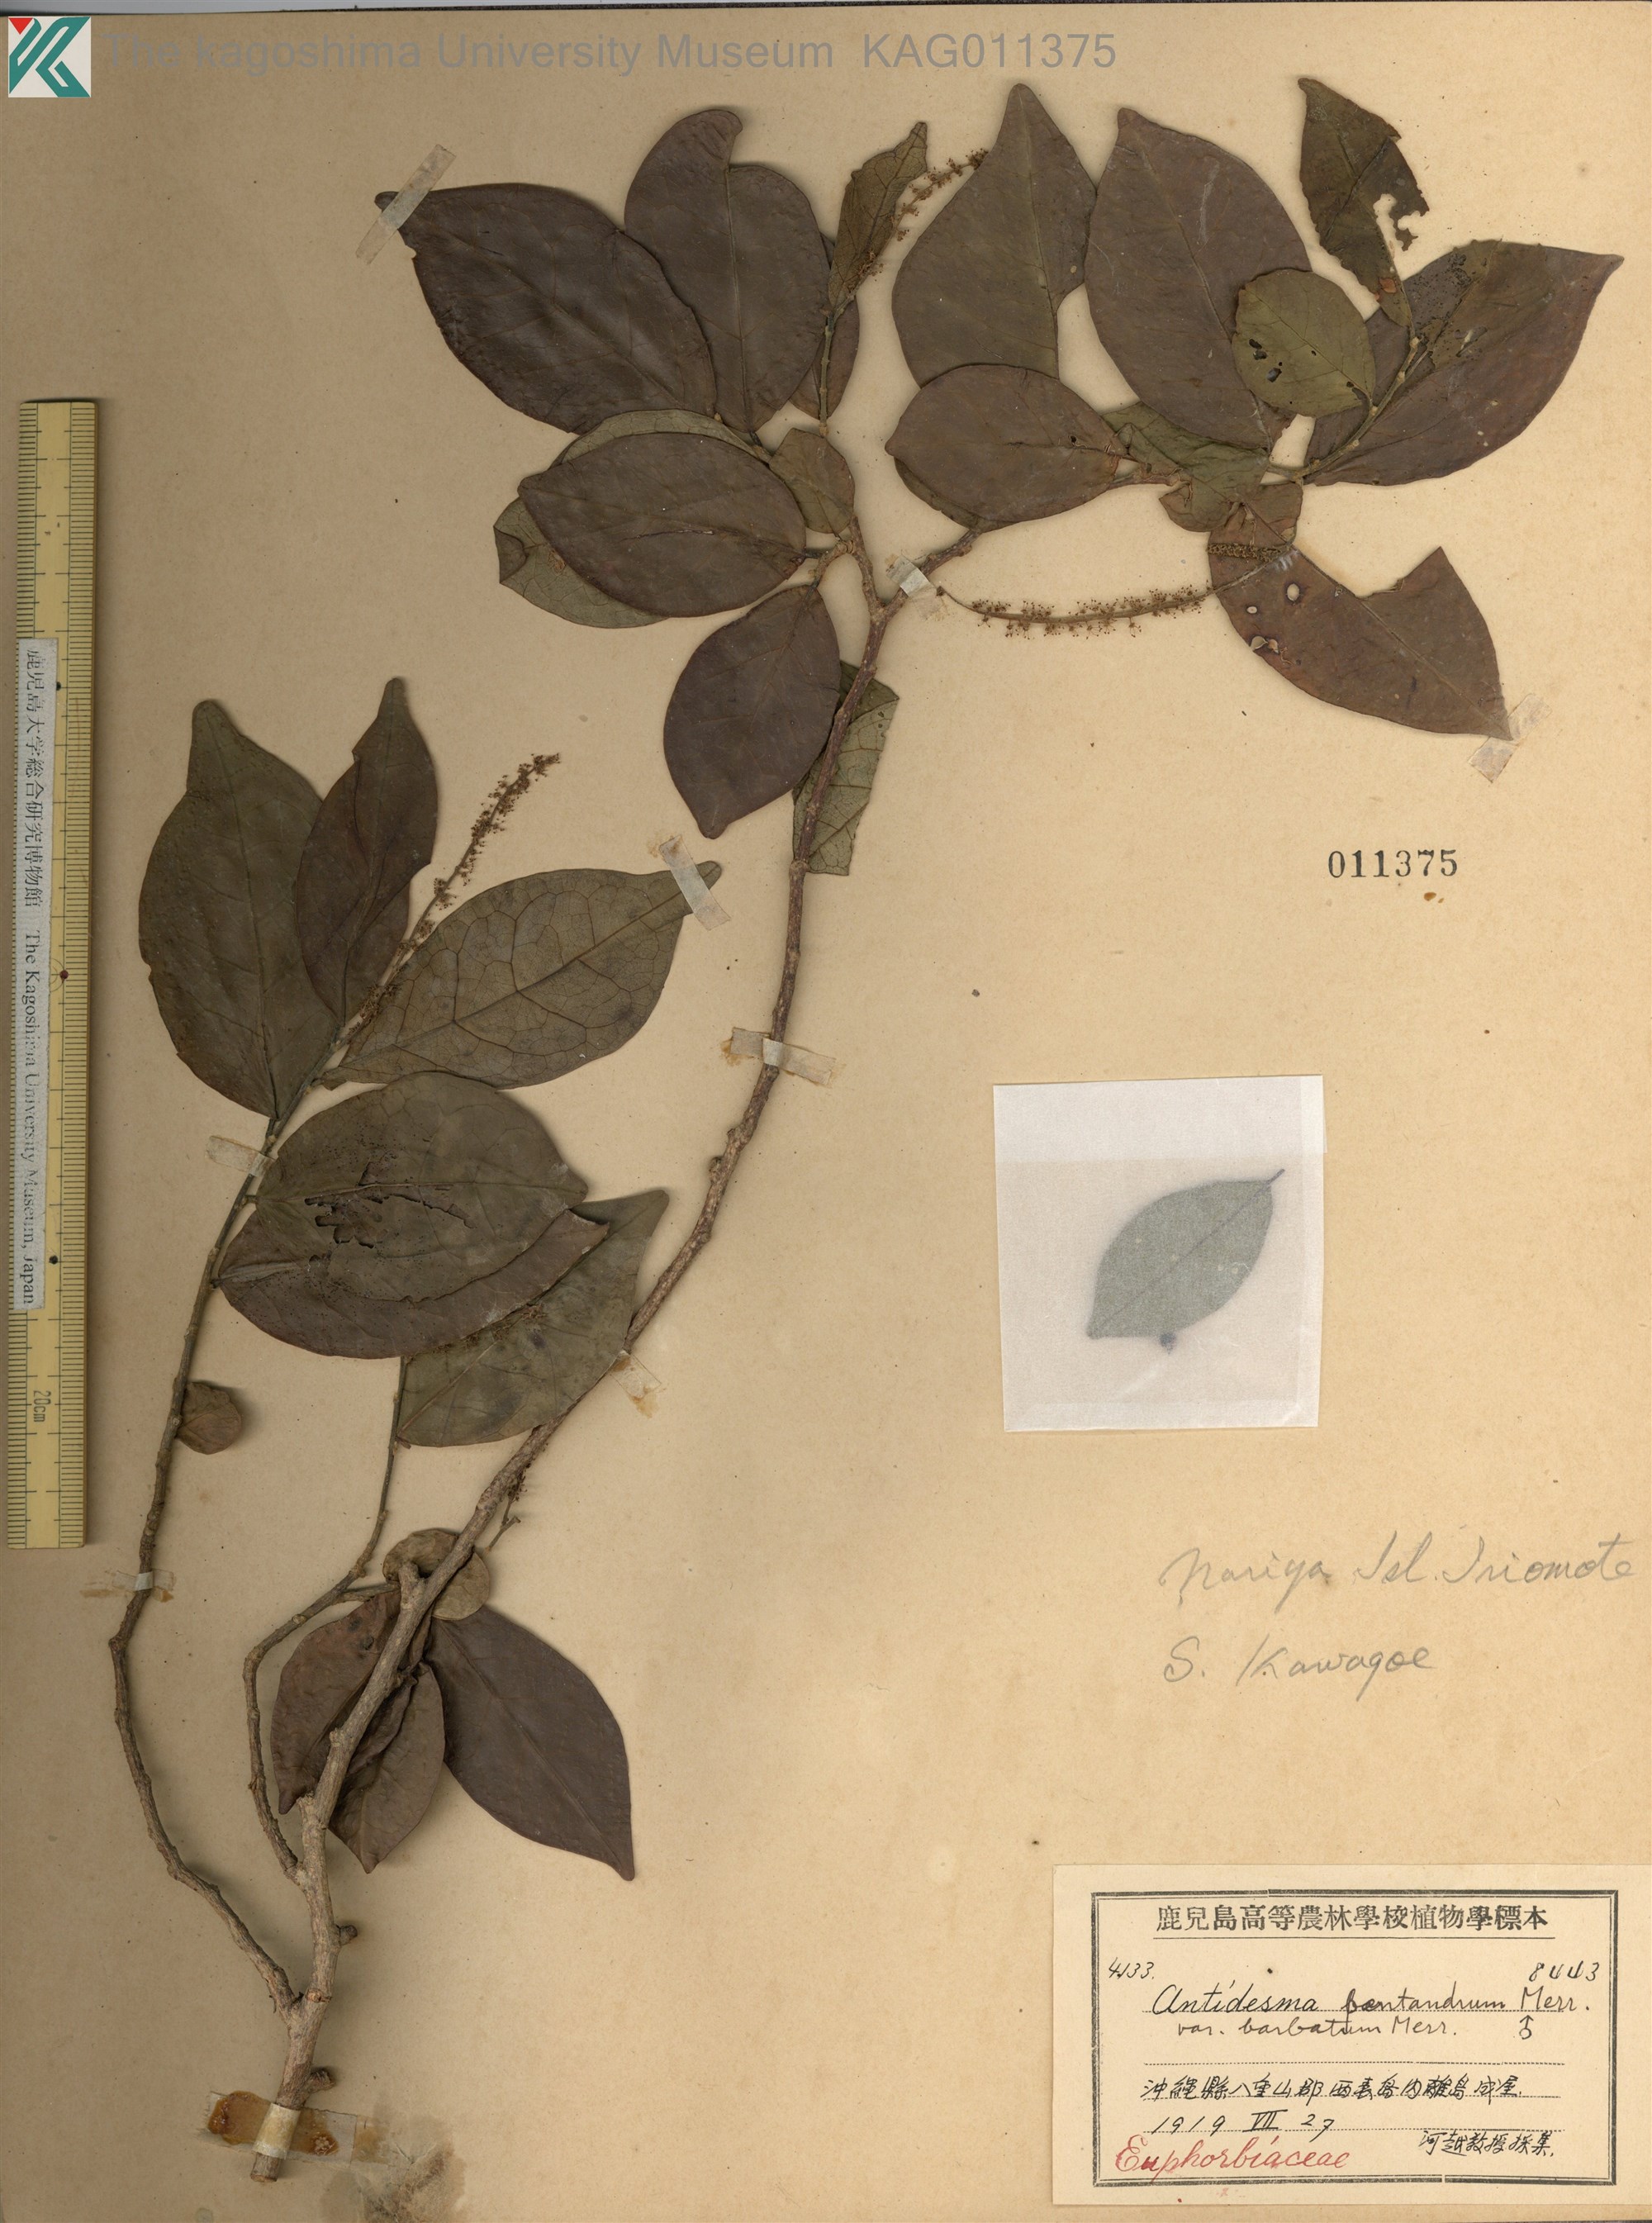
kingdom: Plantae
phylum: Tracheophyta
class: Magnoliopsida
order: Malpighiales
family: Phyllanthaceae
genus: Antidesma
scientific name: Antidesma montanum
